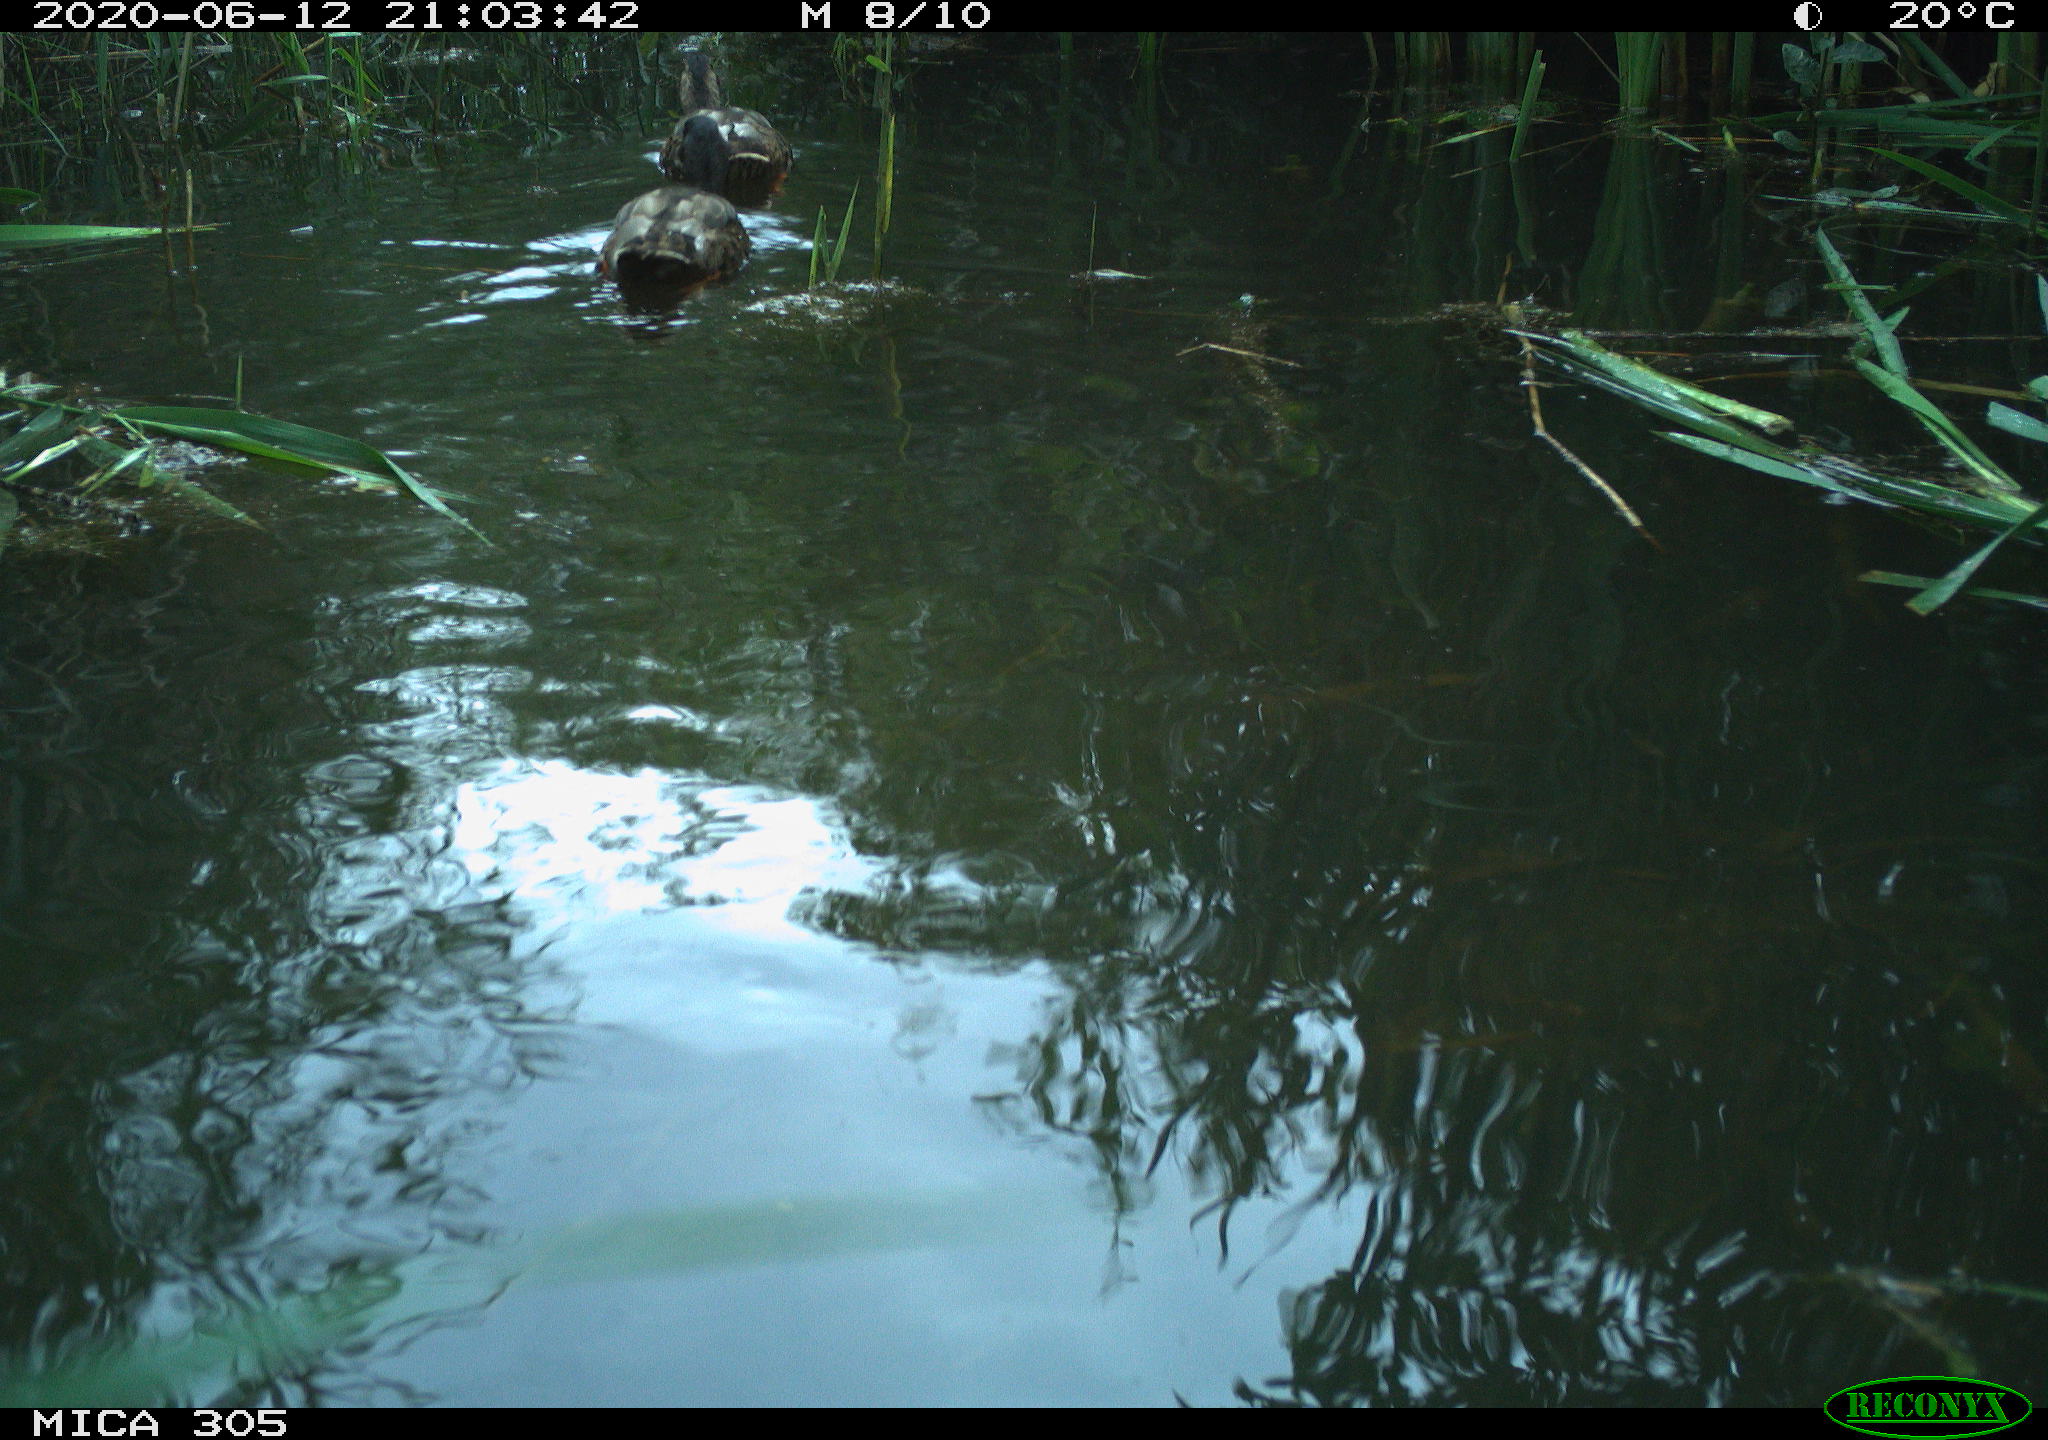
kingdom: Animalia
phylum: Chordata
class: Aves
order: Anseriformes
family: Anatidae
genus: Anas
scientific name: Anas platyrhynchos
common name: Mallard
